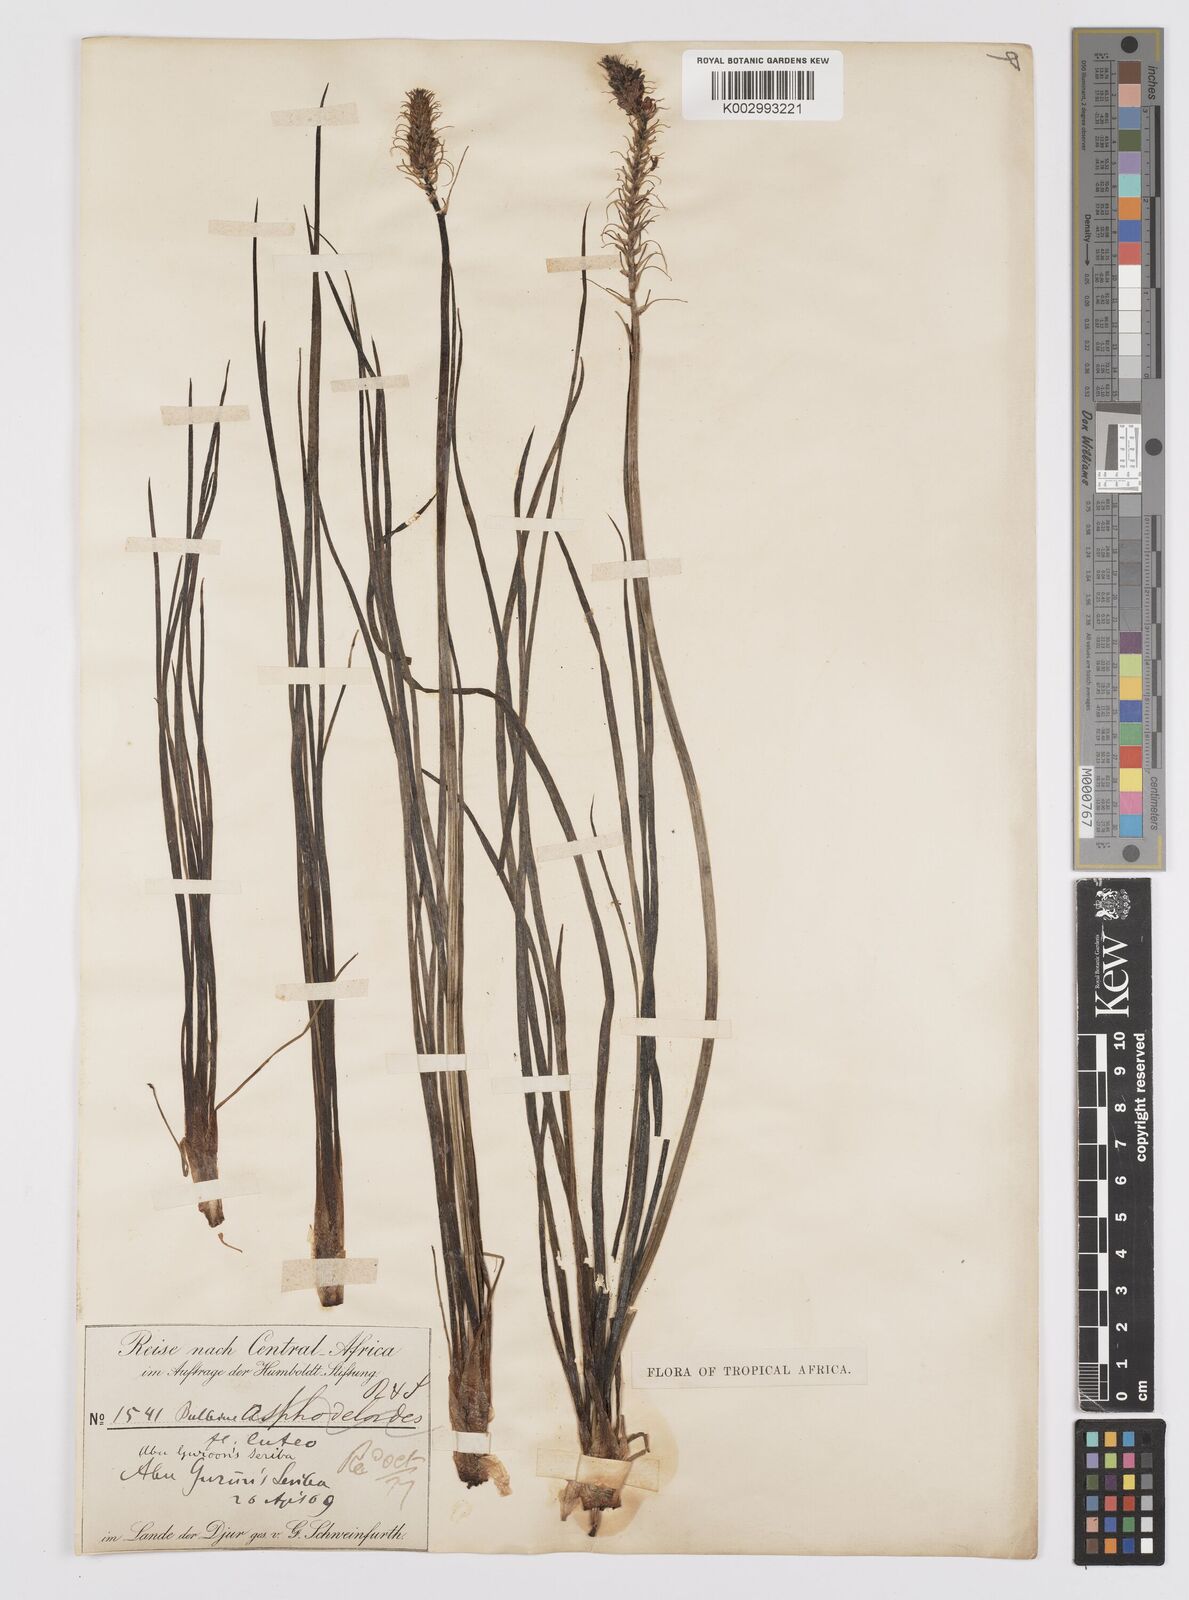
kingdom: Plantae
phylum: Tracheophyta
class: Liliopsida
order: Asparagales
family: Asphodelaceae
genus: Bulbine
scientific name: Bulbine abyssinica
